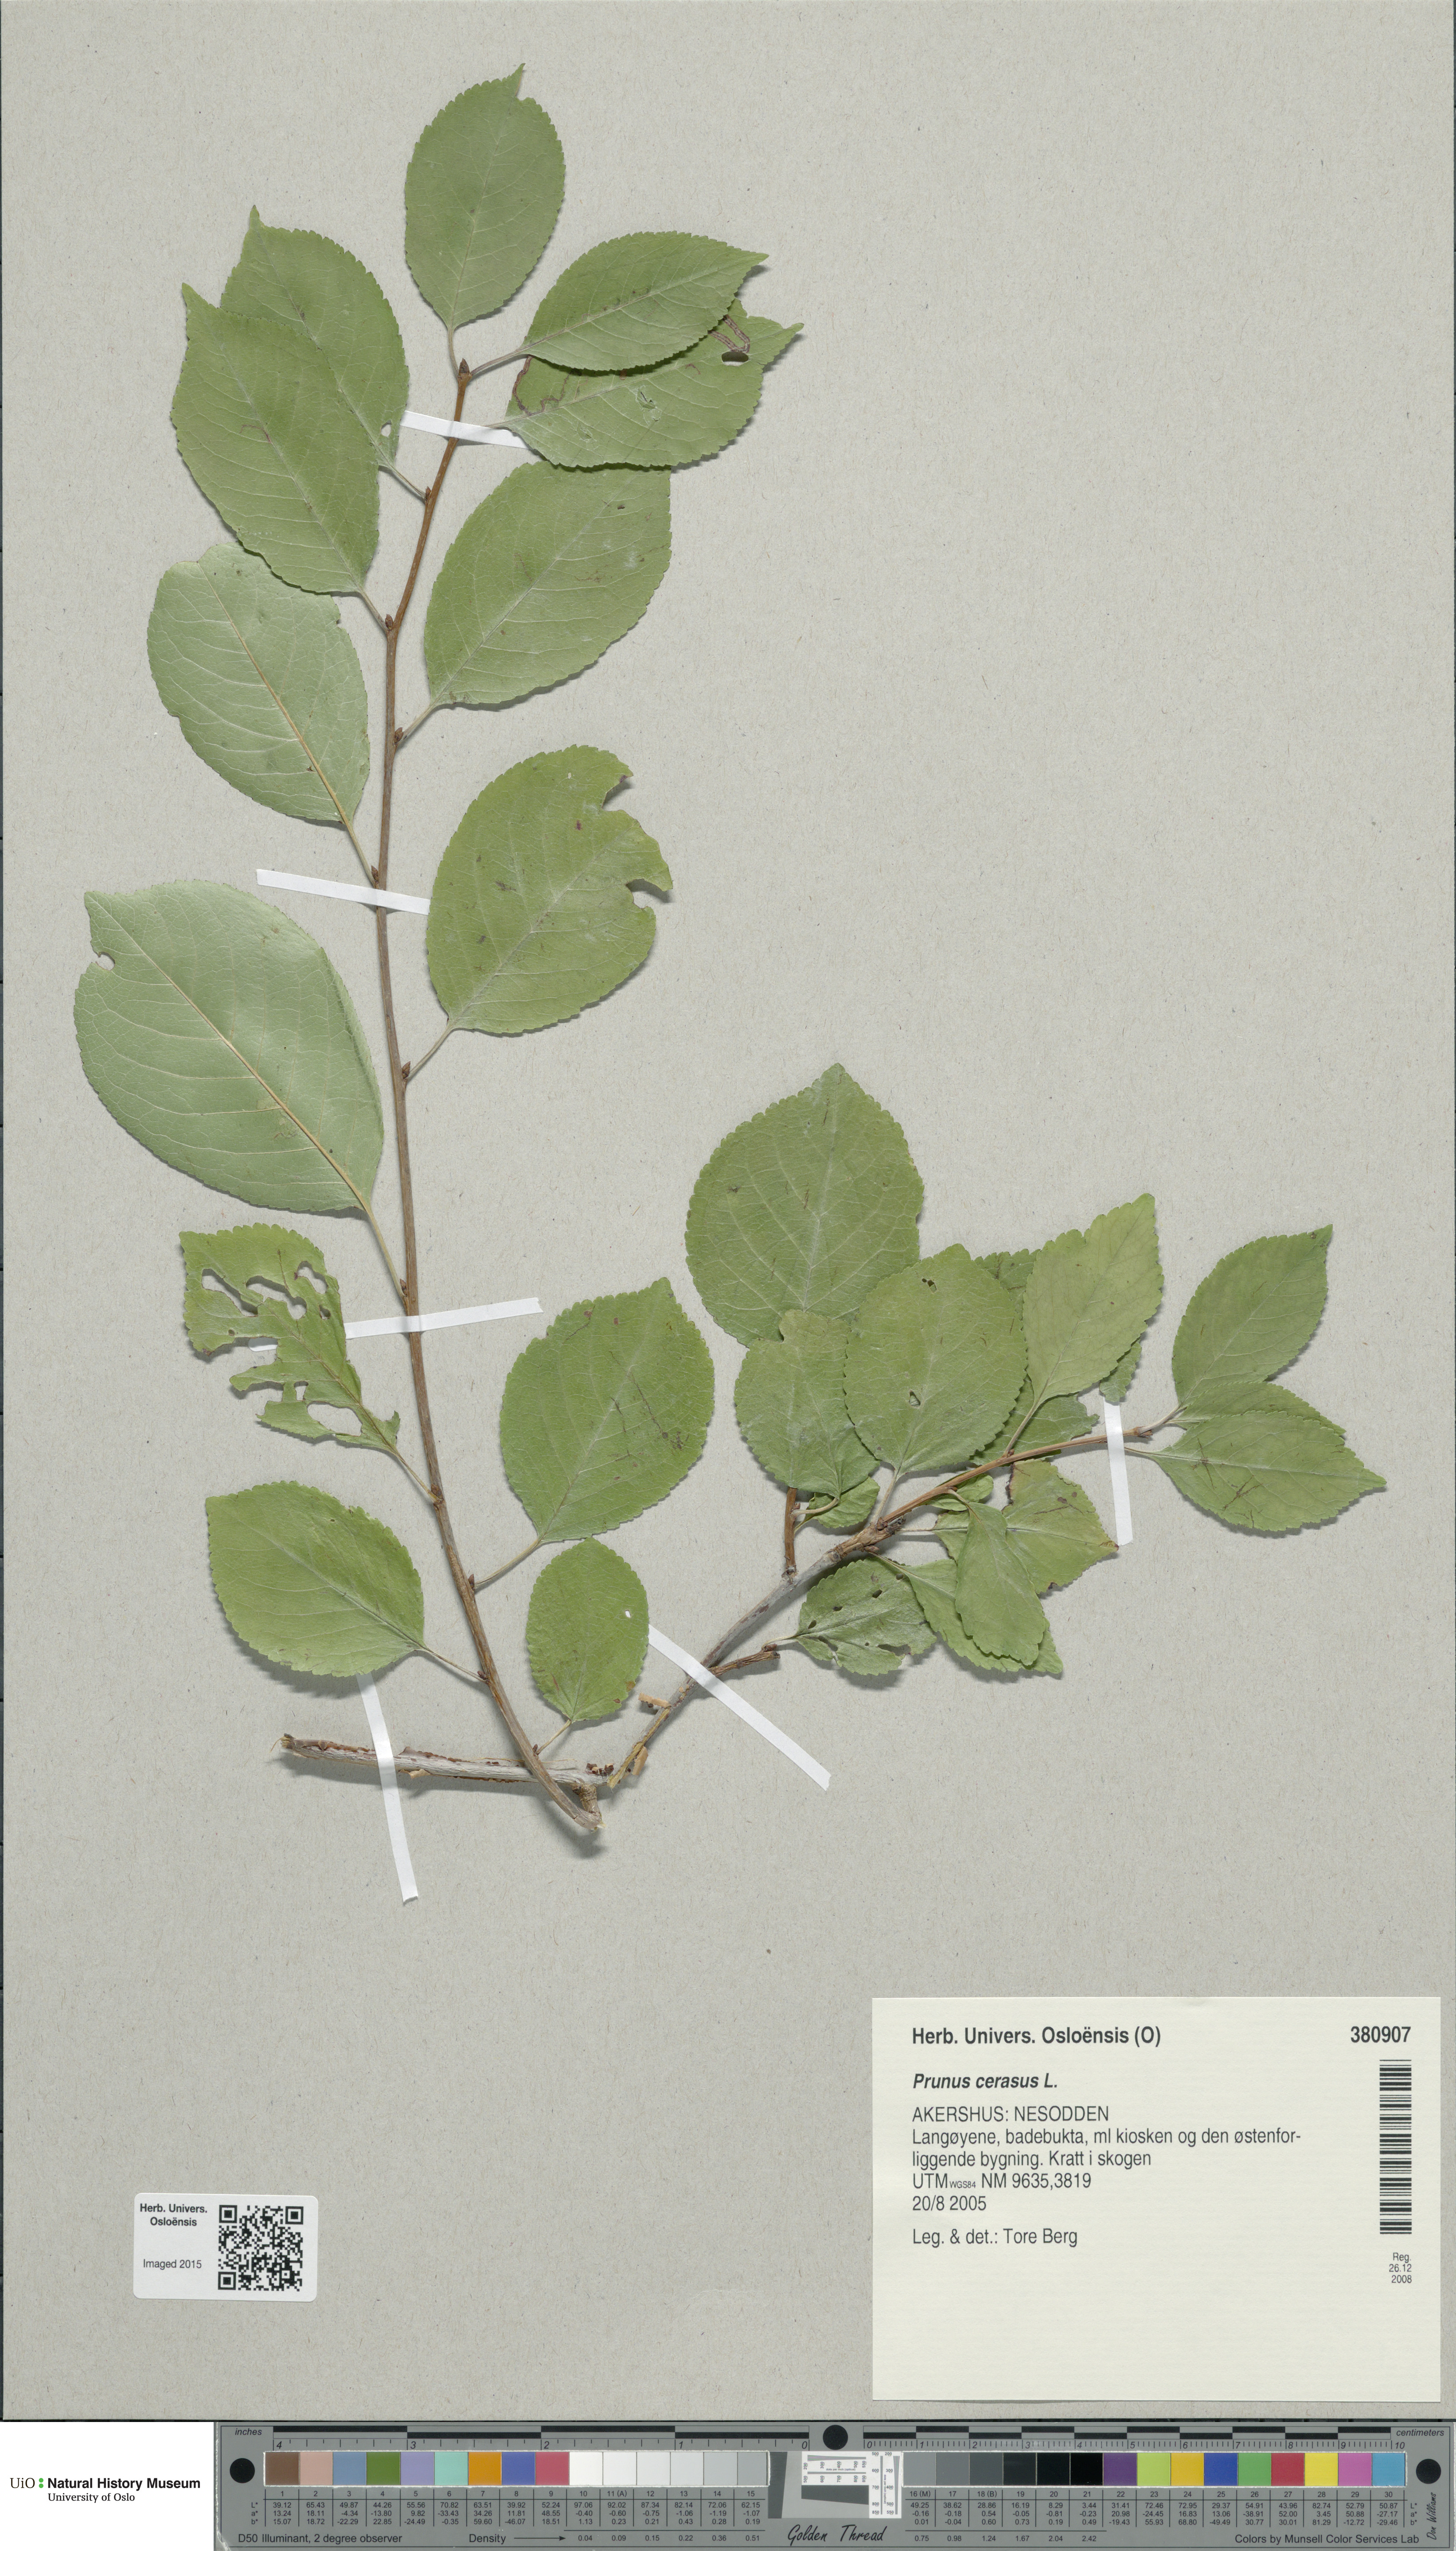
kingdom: Plantae
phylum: Tracheophyta
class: Magnoliopsida
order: Rosales
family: Rosaceae
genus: Prunus
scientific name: Prunus cerasus
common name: Morello cherry
